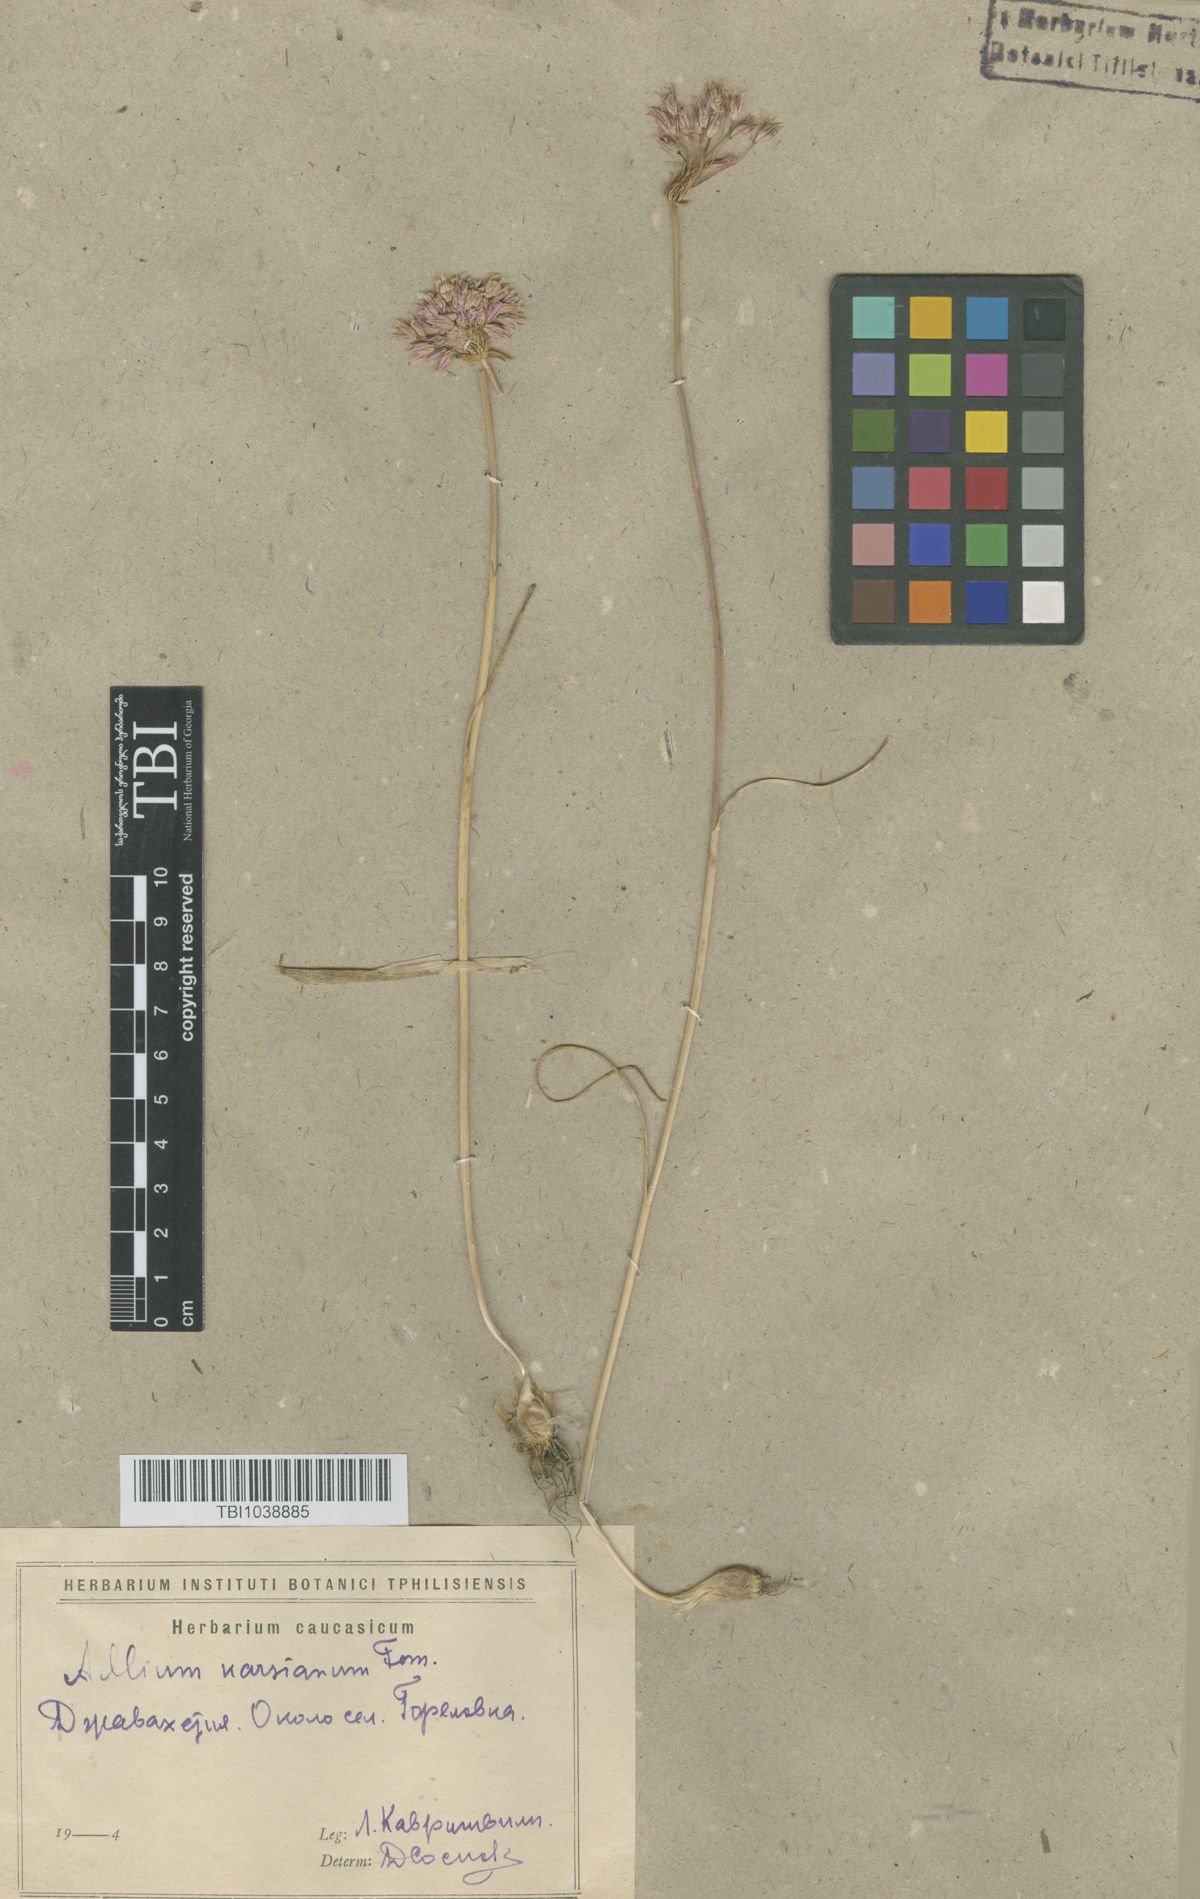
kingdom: Plantae
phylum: Tracheophyta
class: Liliopsida
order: Asparagales
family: Amaryllidaceae
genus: Allium
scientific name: Allium paniculatum
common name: Pale garlic
